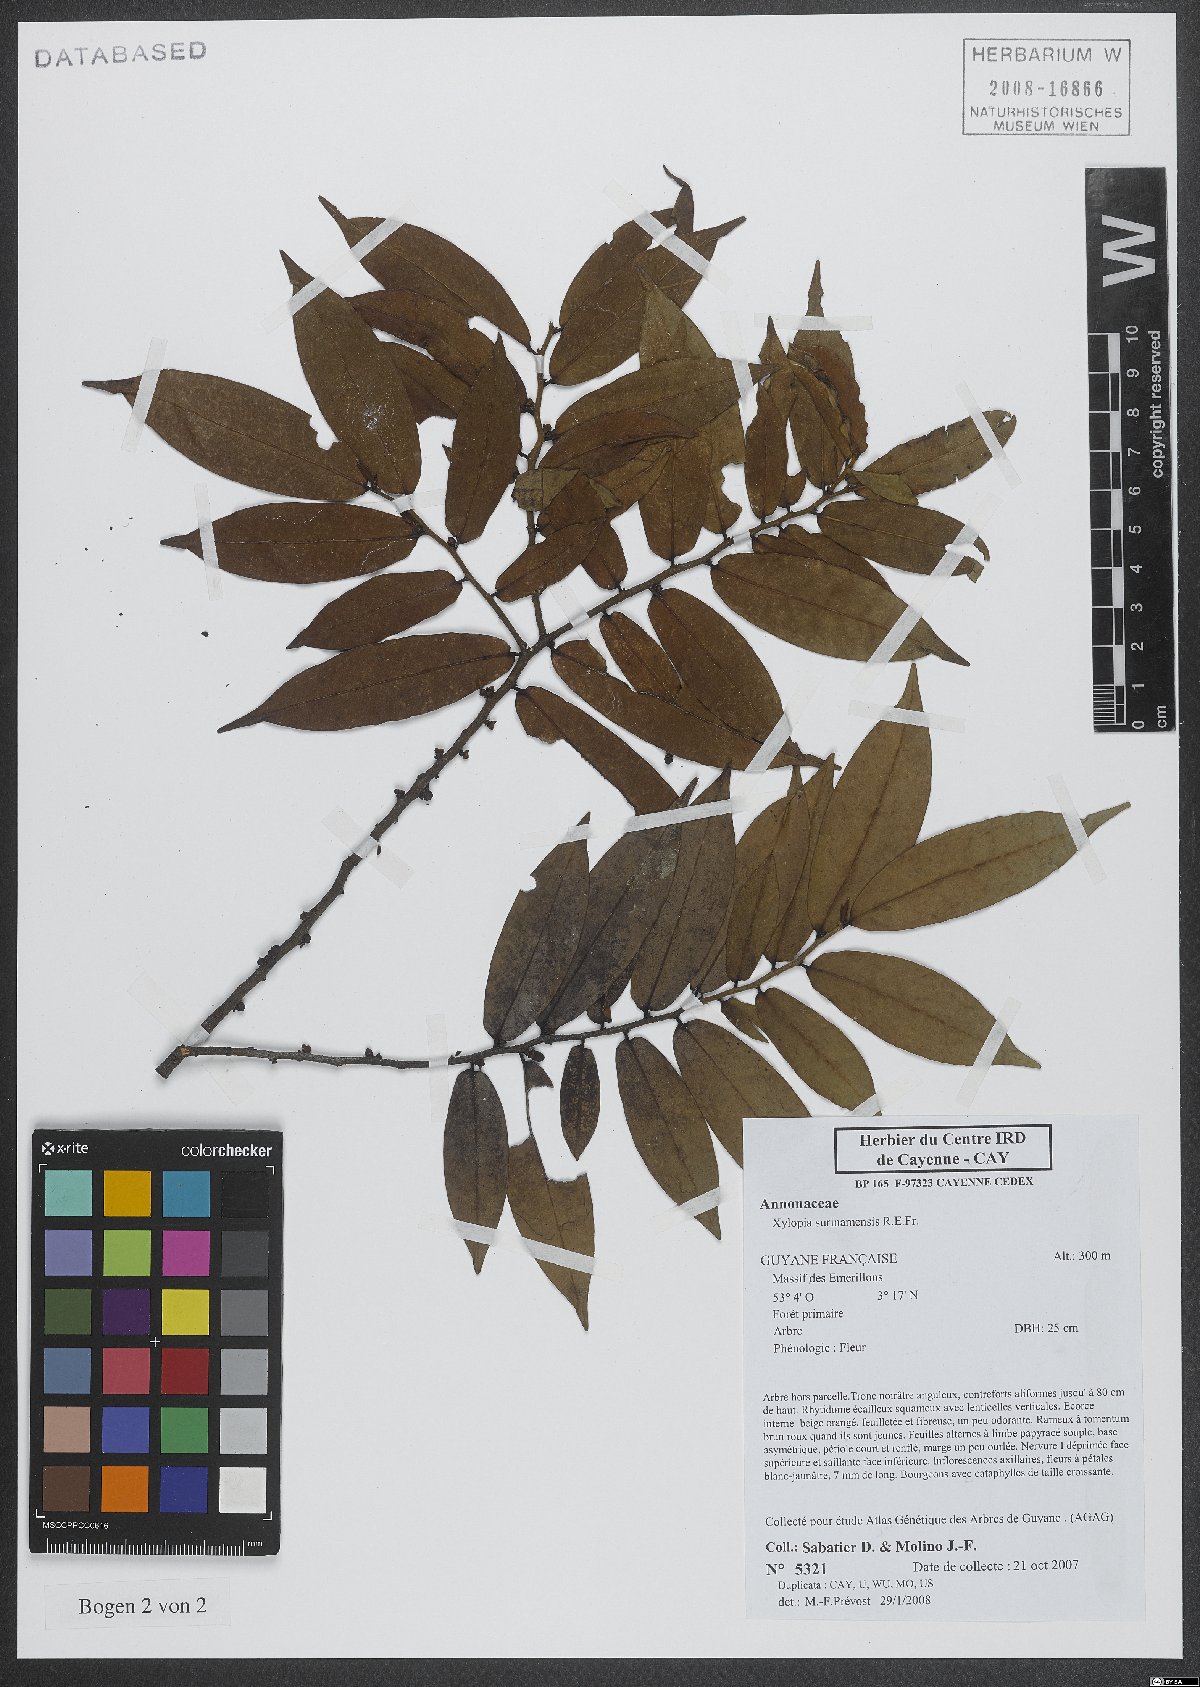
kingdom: Plantae
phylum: Tracheophyta
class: Magnoliopsida
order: Magnoliales
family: Annonaceae
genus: Xylopia
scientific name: Xylopia surinamensis
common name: Black wepopi
